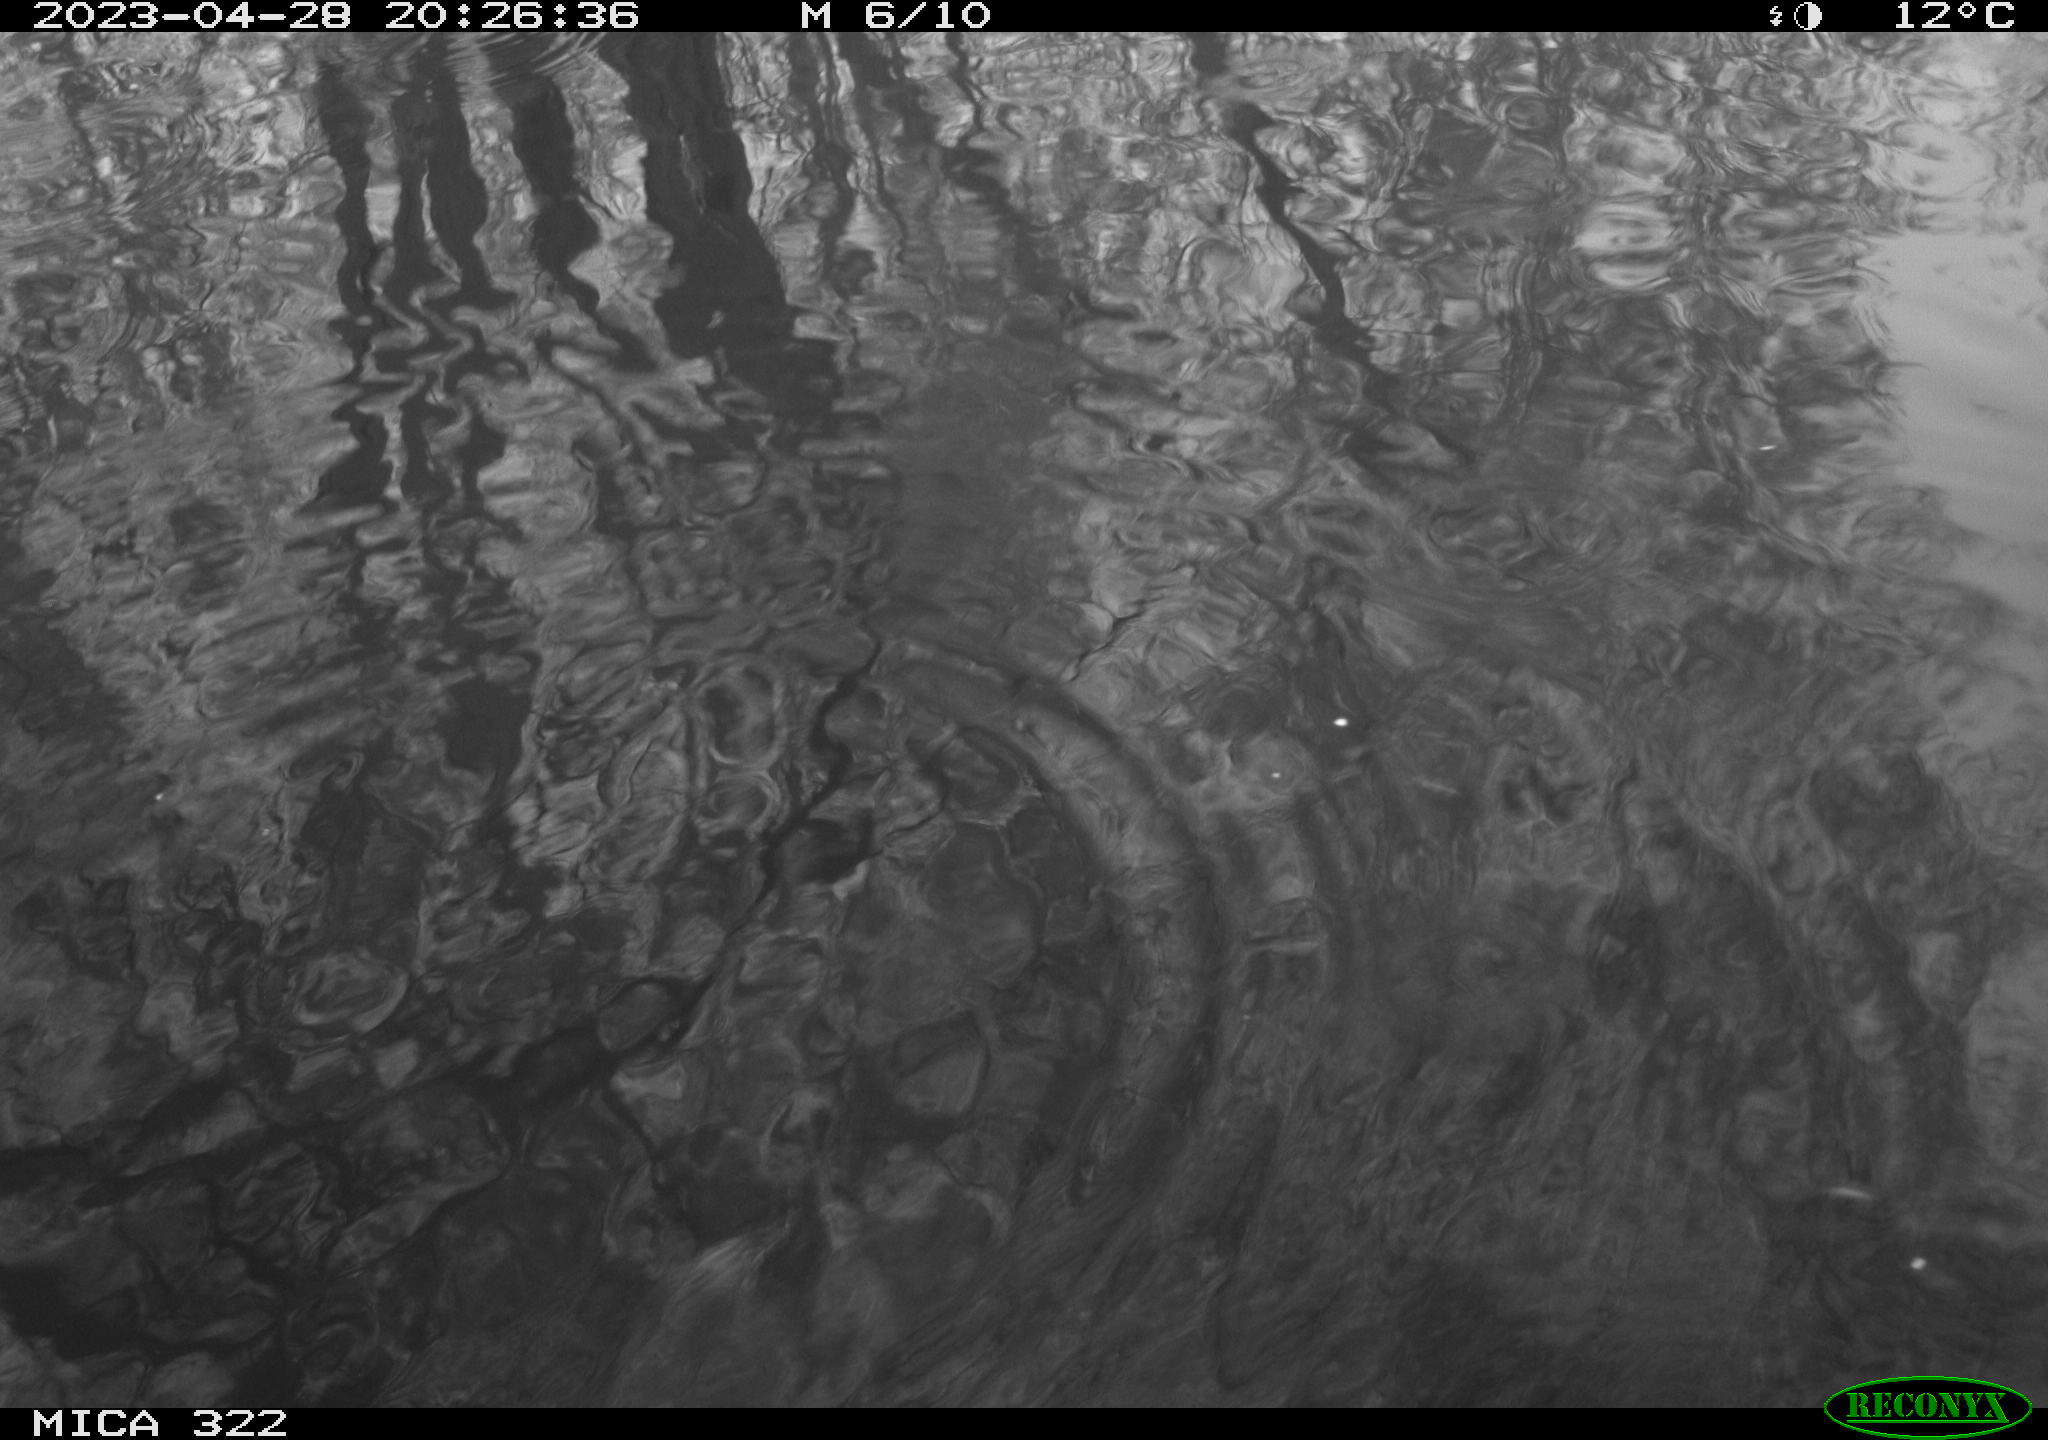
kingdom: Animalia
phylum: Chordata
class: Aves
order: Gruiformes
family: Rallidae
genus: Gallinula
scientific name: Gallinula chloropus
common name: Common moorhen
